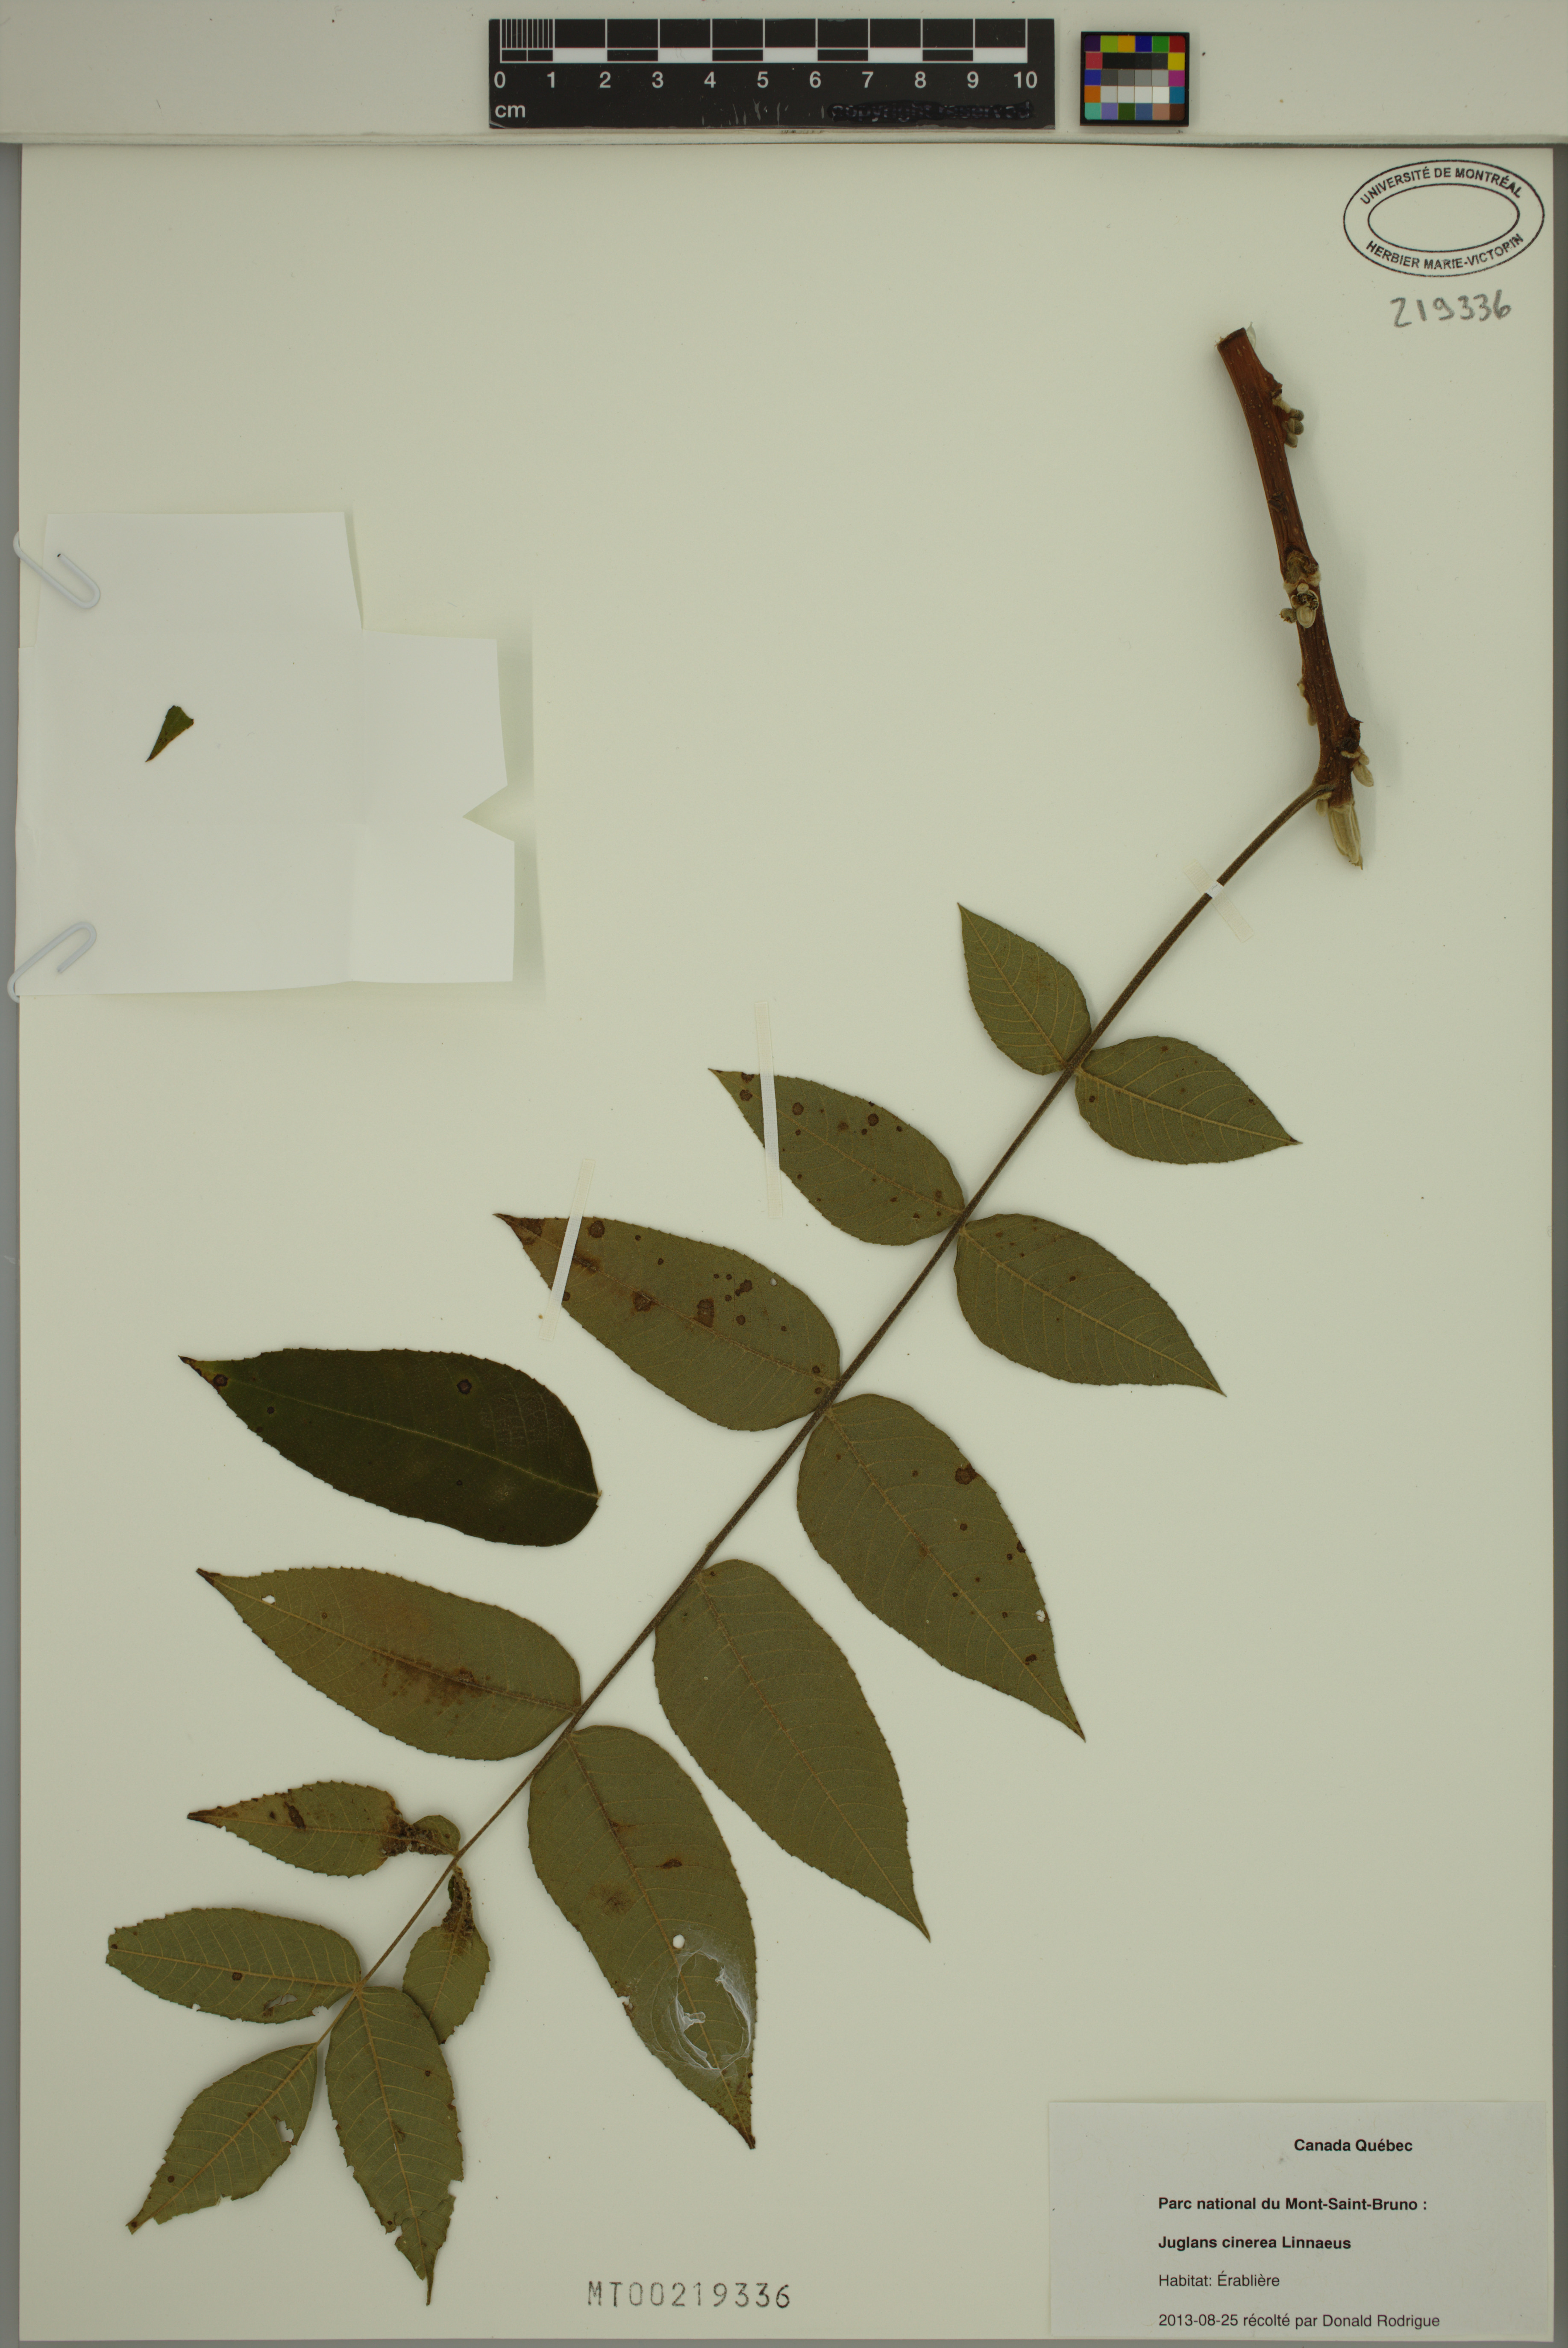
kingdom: Plantae
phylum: Tracheophyta
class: Magnoliopsida
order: Fagales
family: Juglandaceae
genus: Juglans
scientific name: Juglans cinerea
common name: Butternut
